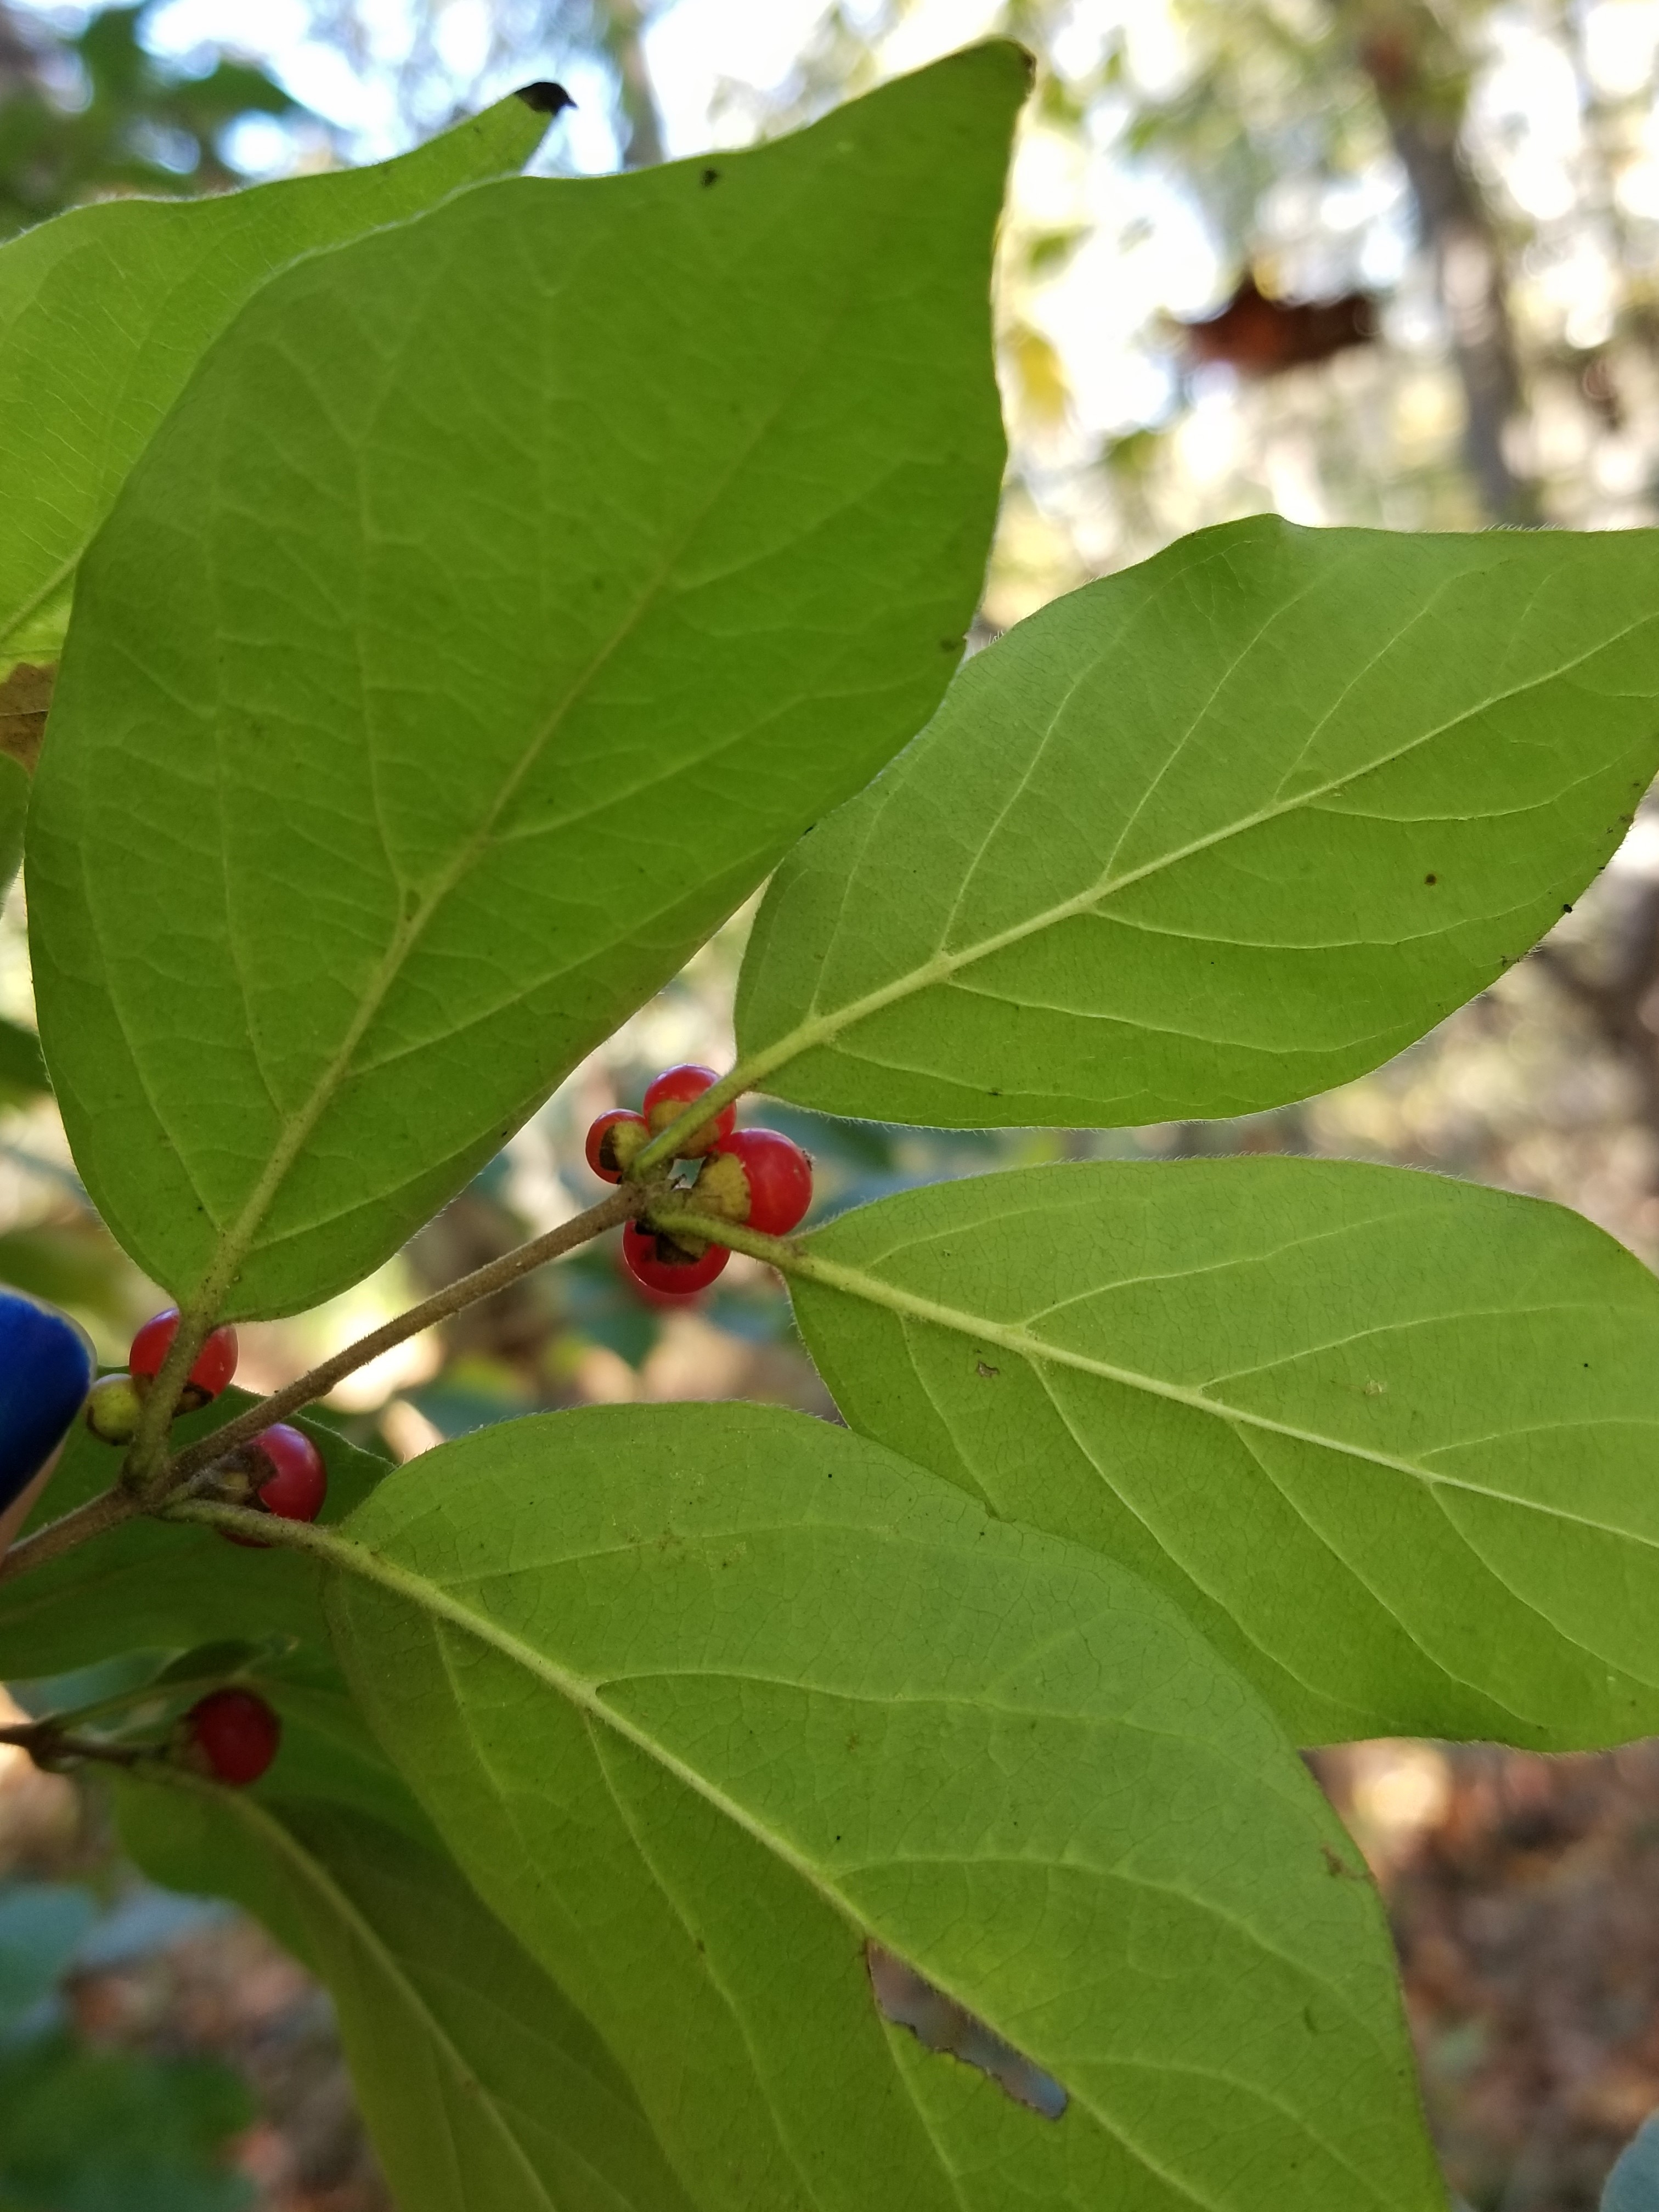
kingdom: Plantae
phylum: Tracheophyta
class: Magnoliopsida
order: Dipsacales
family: Caprifoliaceae
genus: Lonicera
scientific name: Lonicera maackii
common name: Amur Honeysuckle
